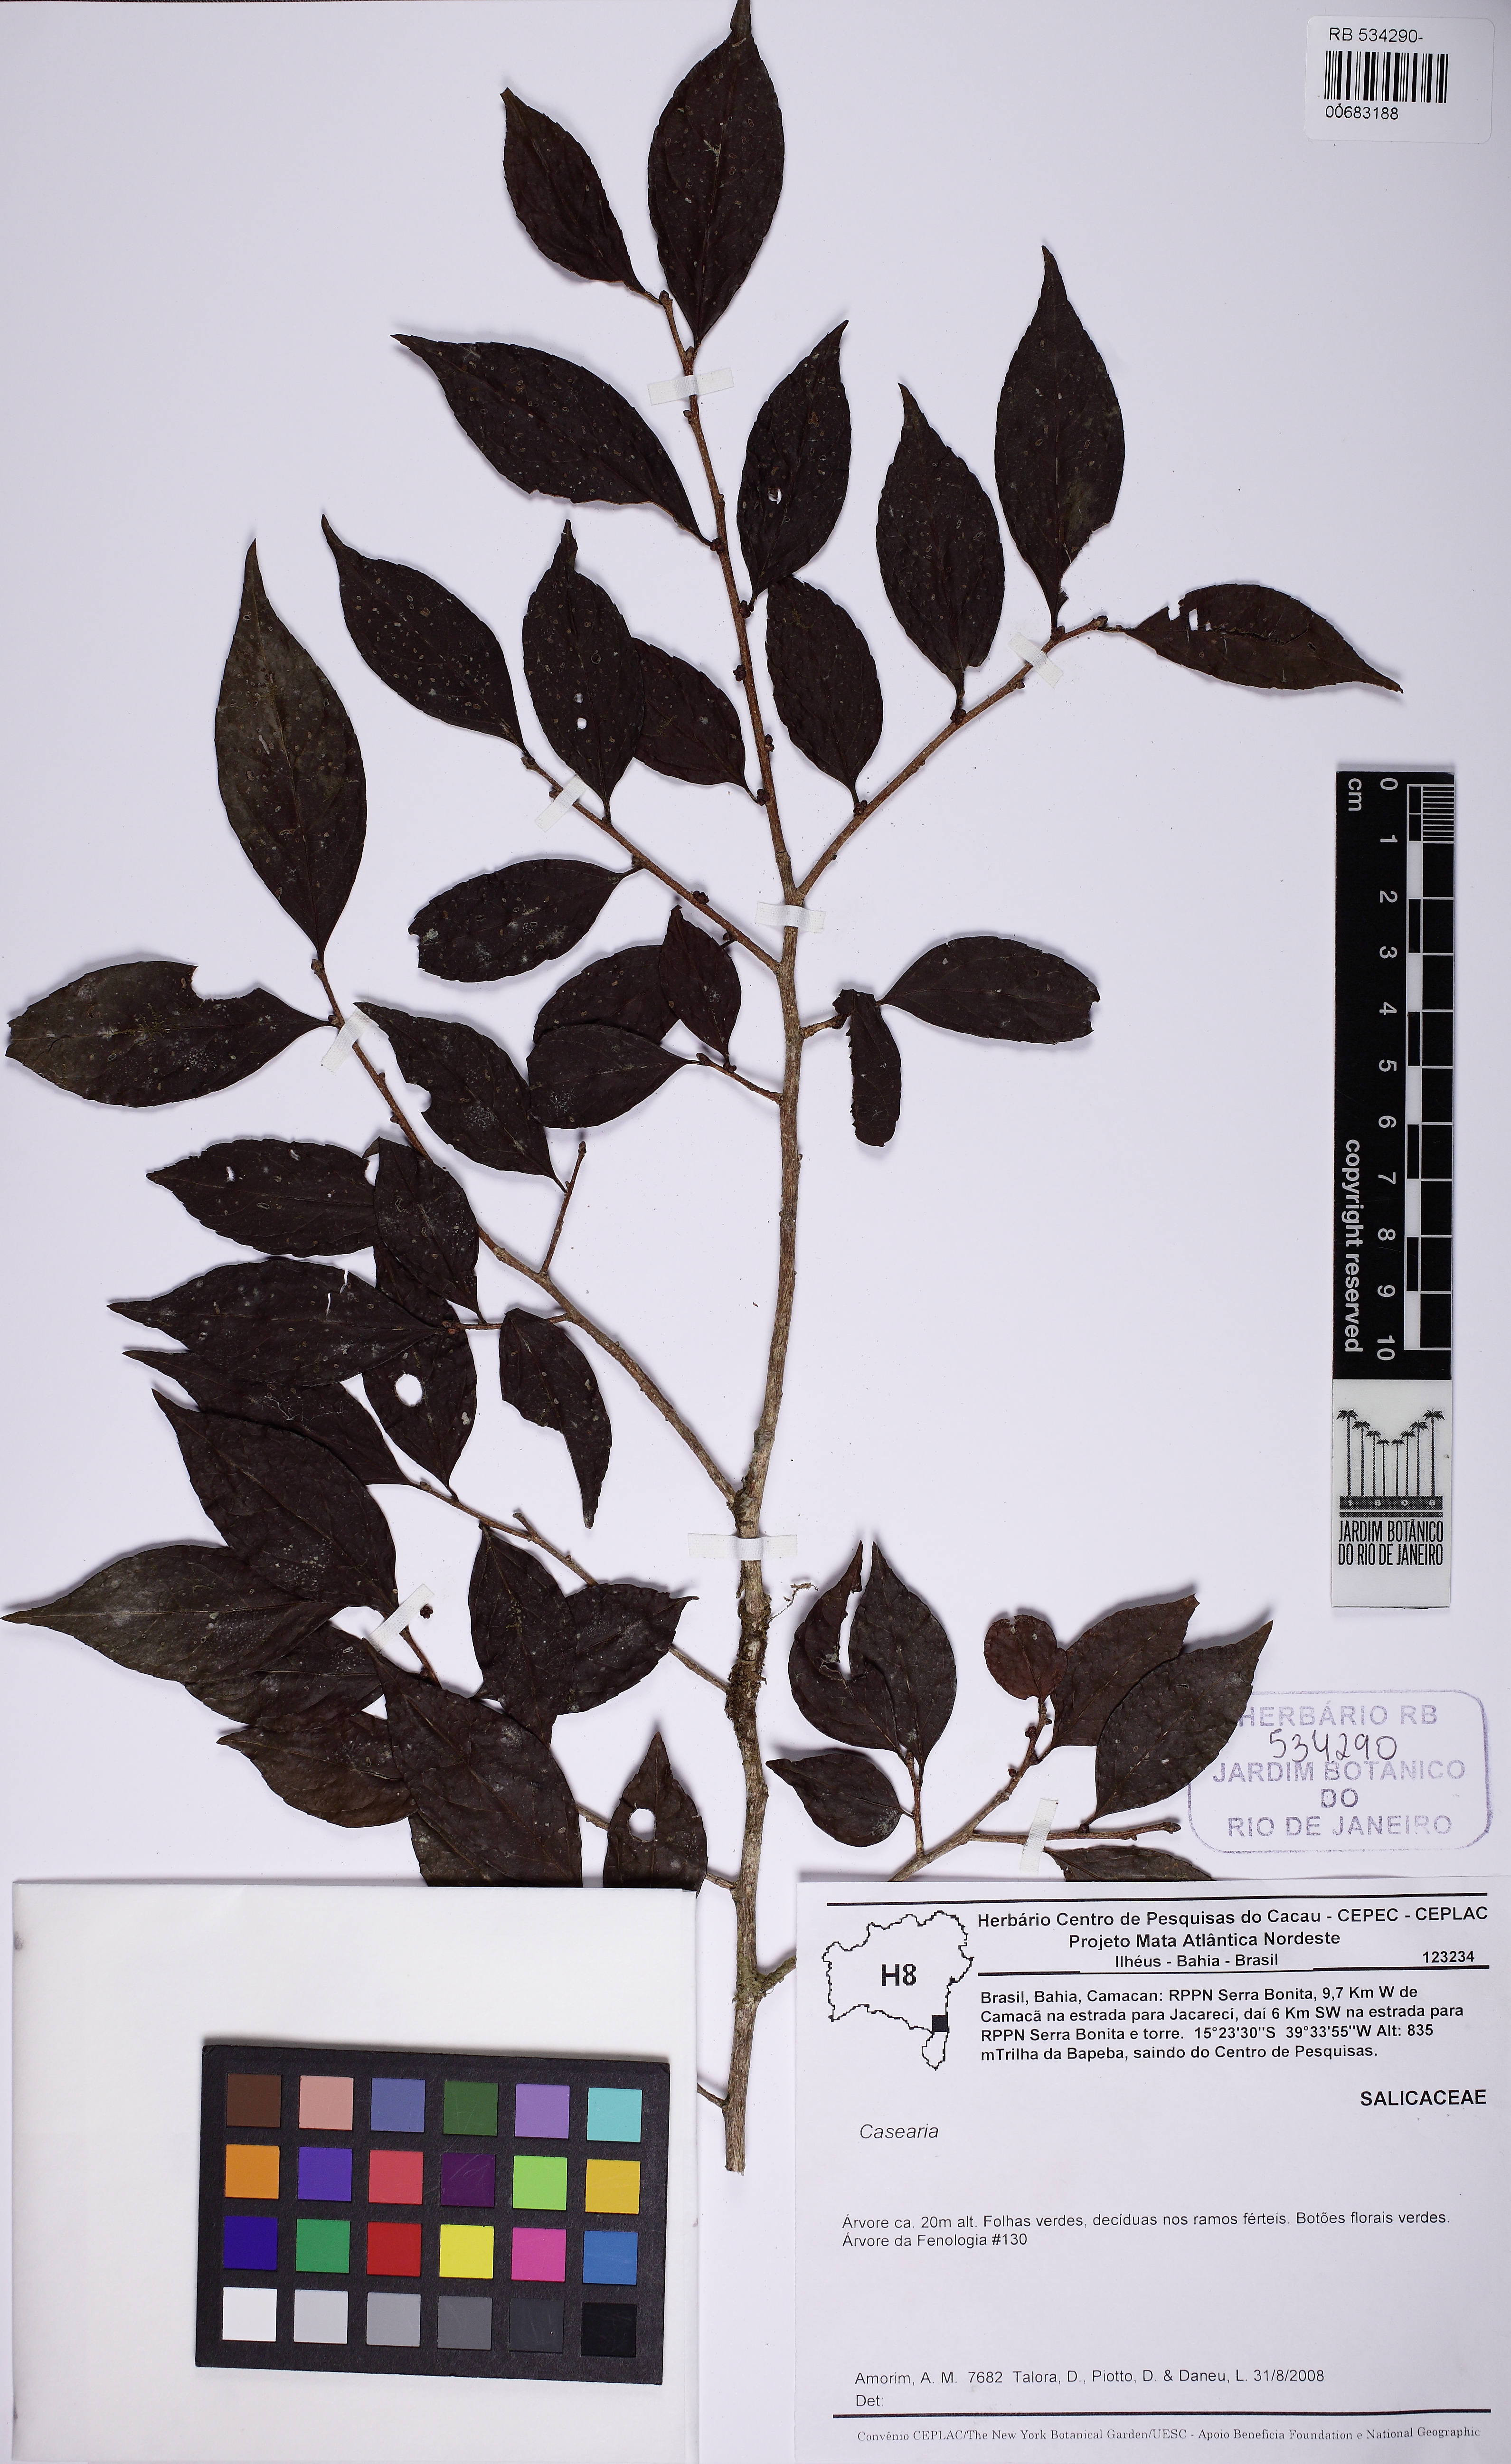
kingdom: Plantae
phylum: Tracheophyta
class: Magnoliopsida
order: Malpighiales
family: Salicaceae
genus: Casearia
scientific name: Casearia decandra
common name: Crack open
